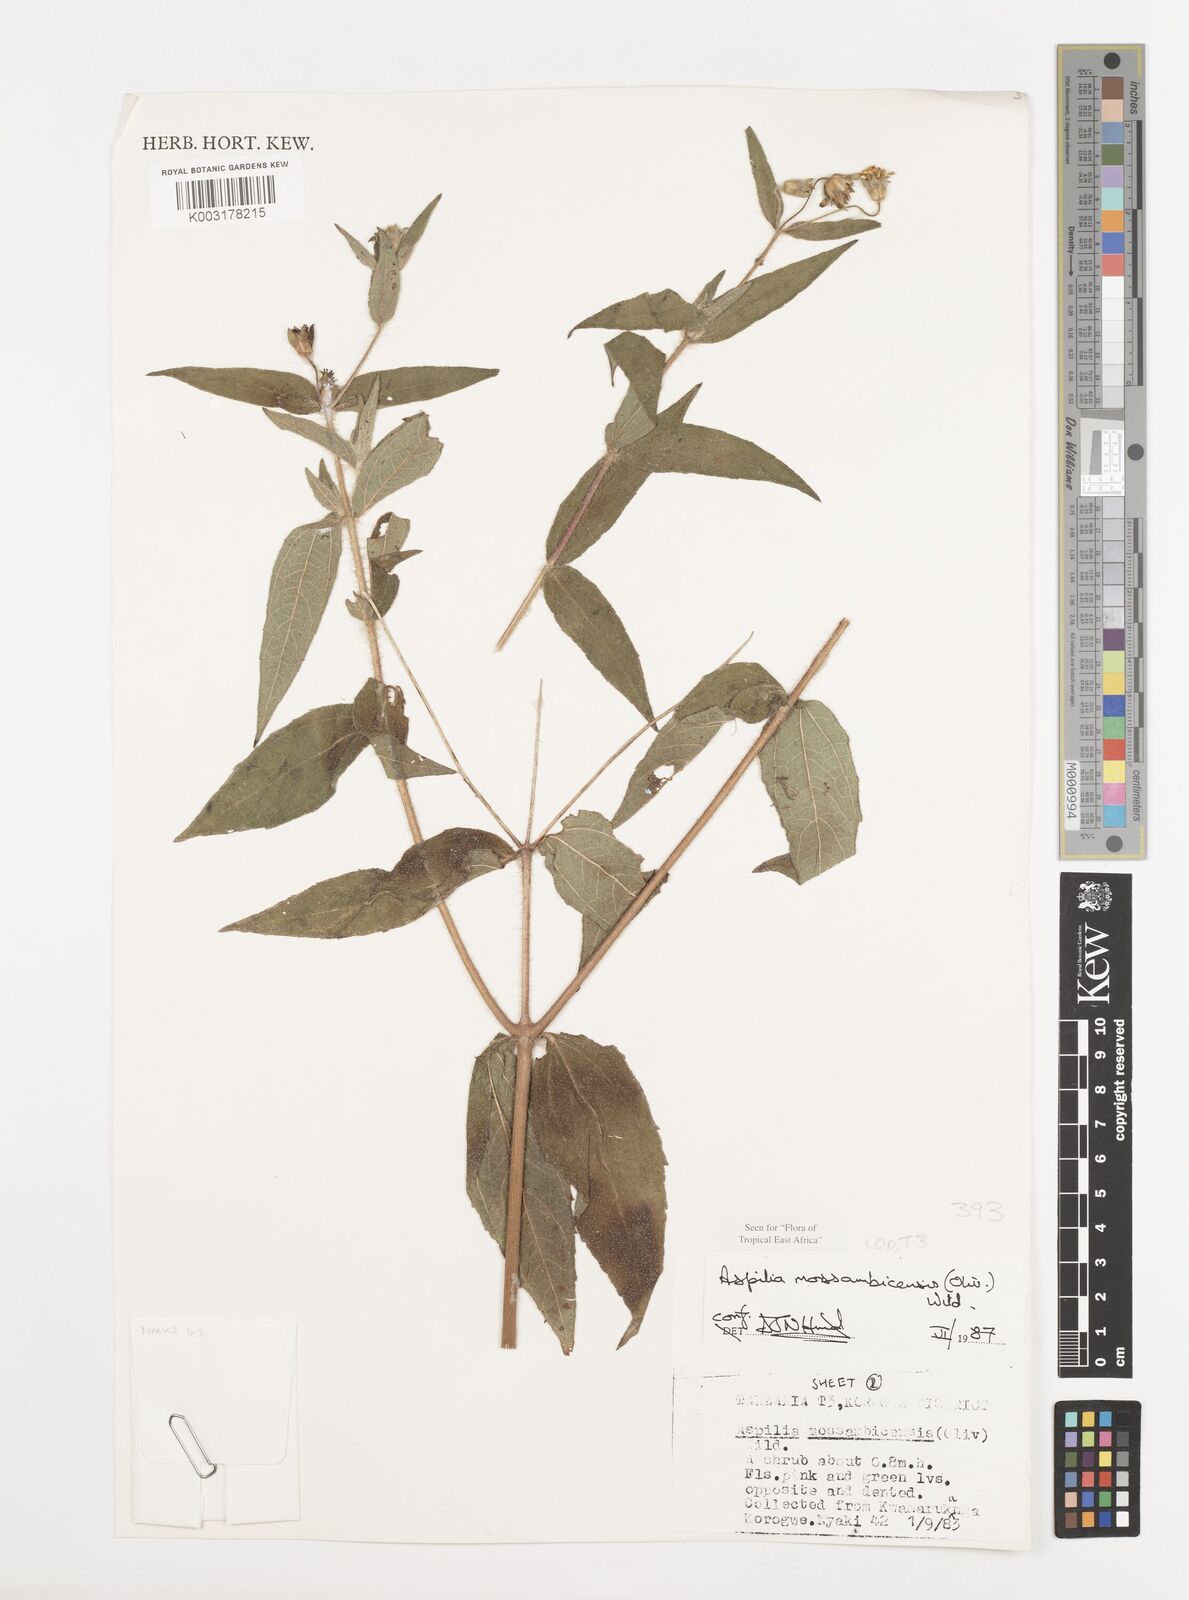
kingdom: Plantae
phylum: Tracheophyta
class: Magnoliopsida
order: Asterales
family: Asteraceae
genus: Aspilia
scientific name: Aspilia mossambicensis
